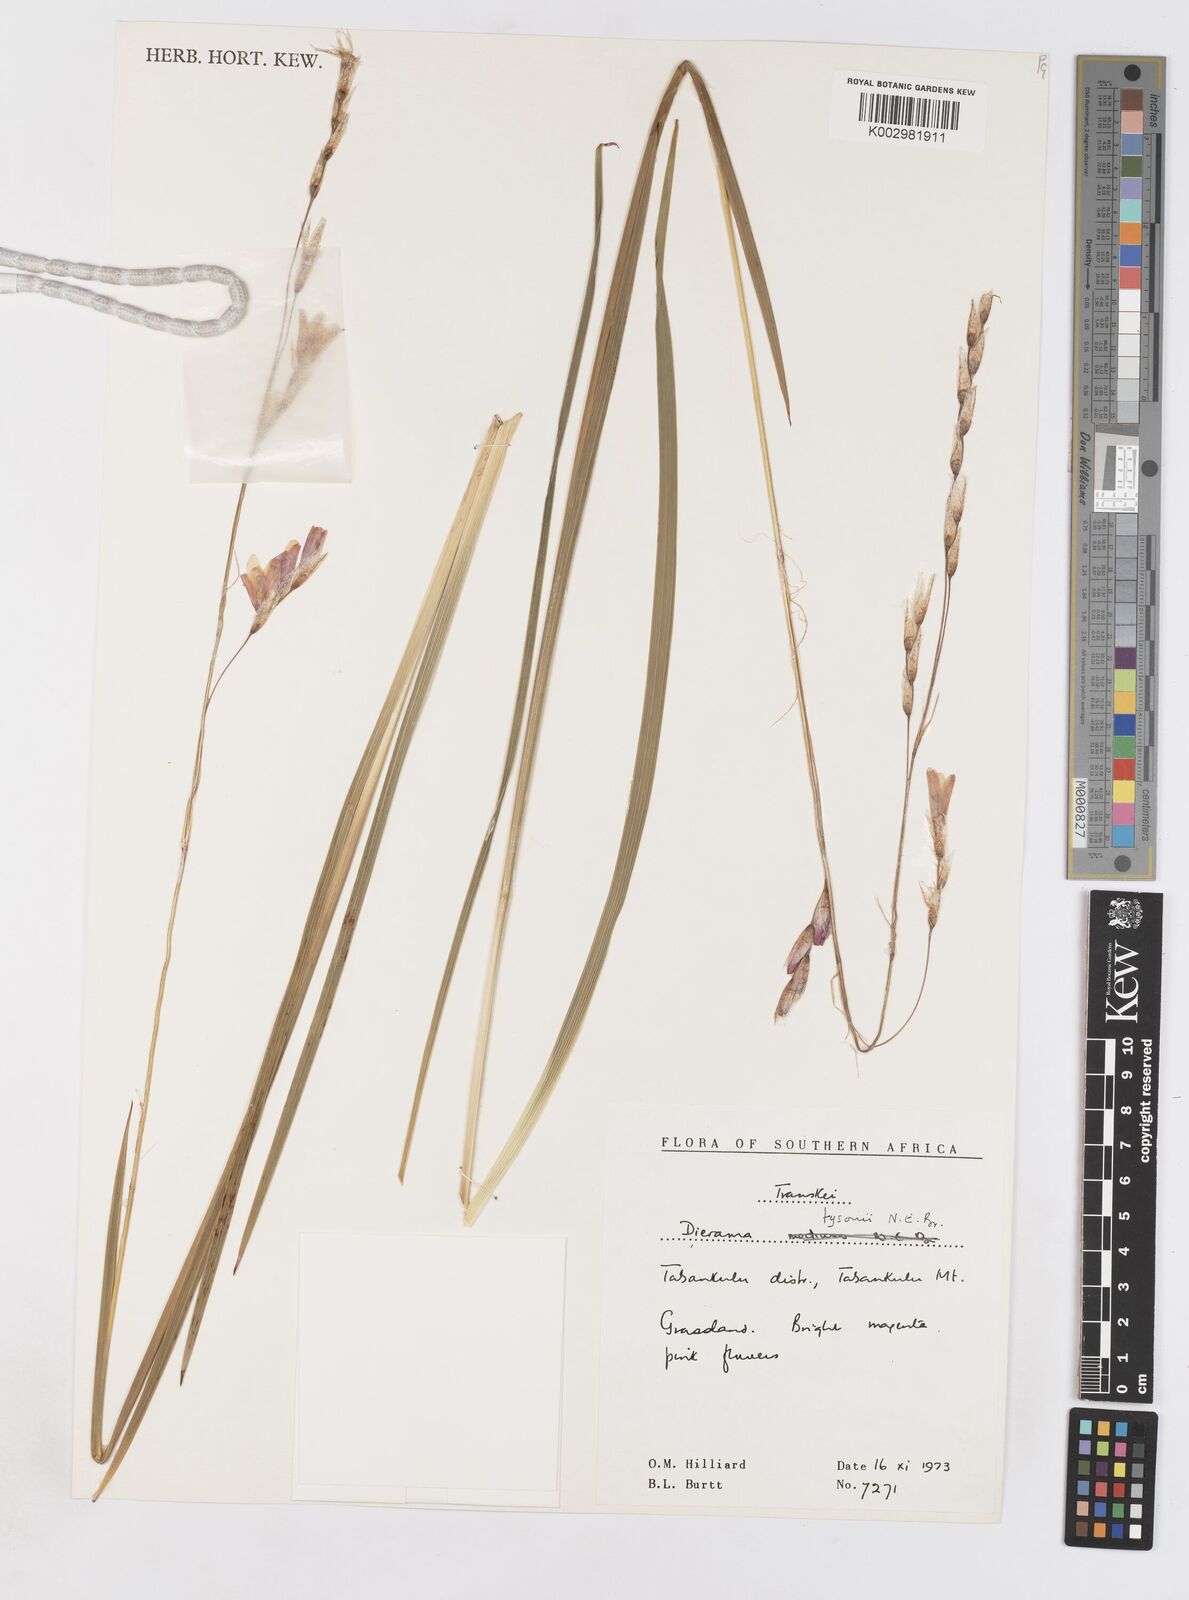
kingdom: Plantae
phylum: Tracheophyta
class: Liliopsida
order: Asparagales
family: Iridaceae
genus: Dierama
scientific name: Dierama tysonii
